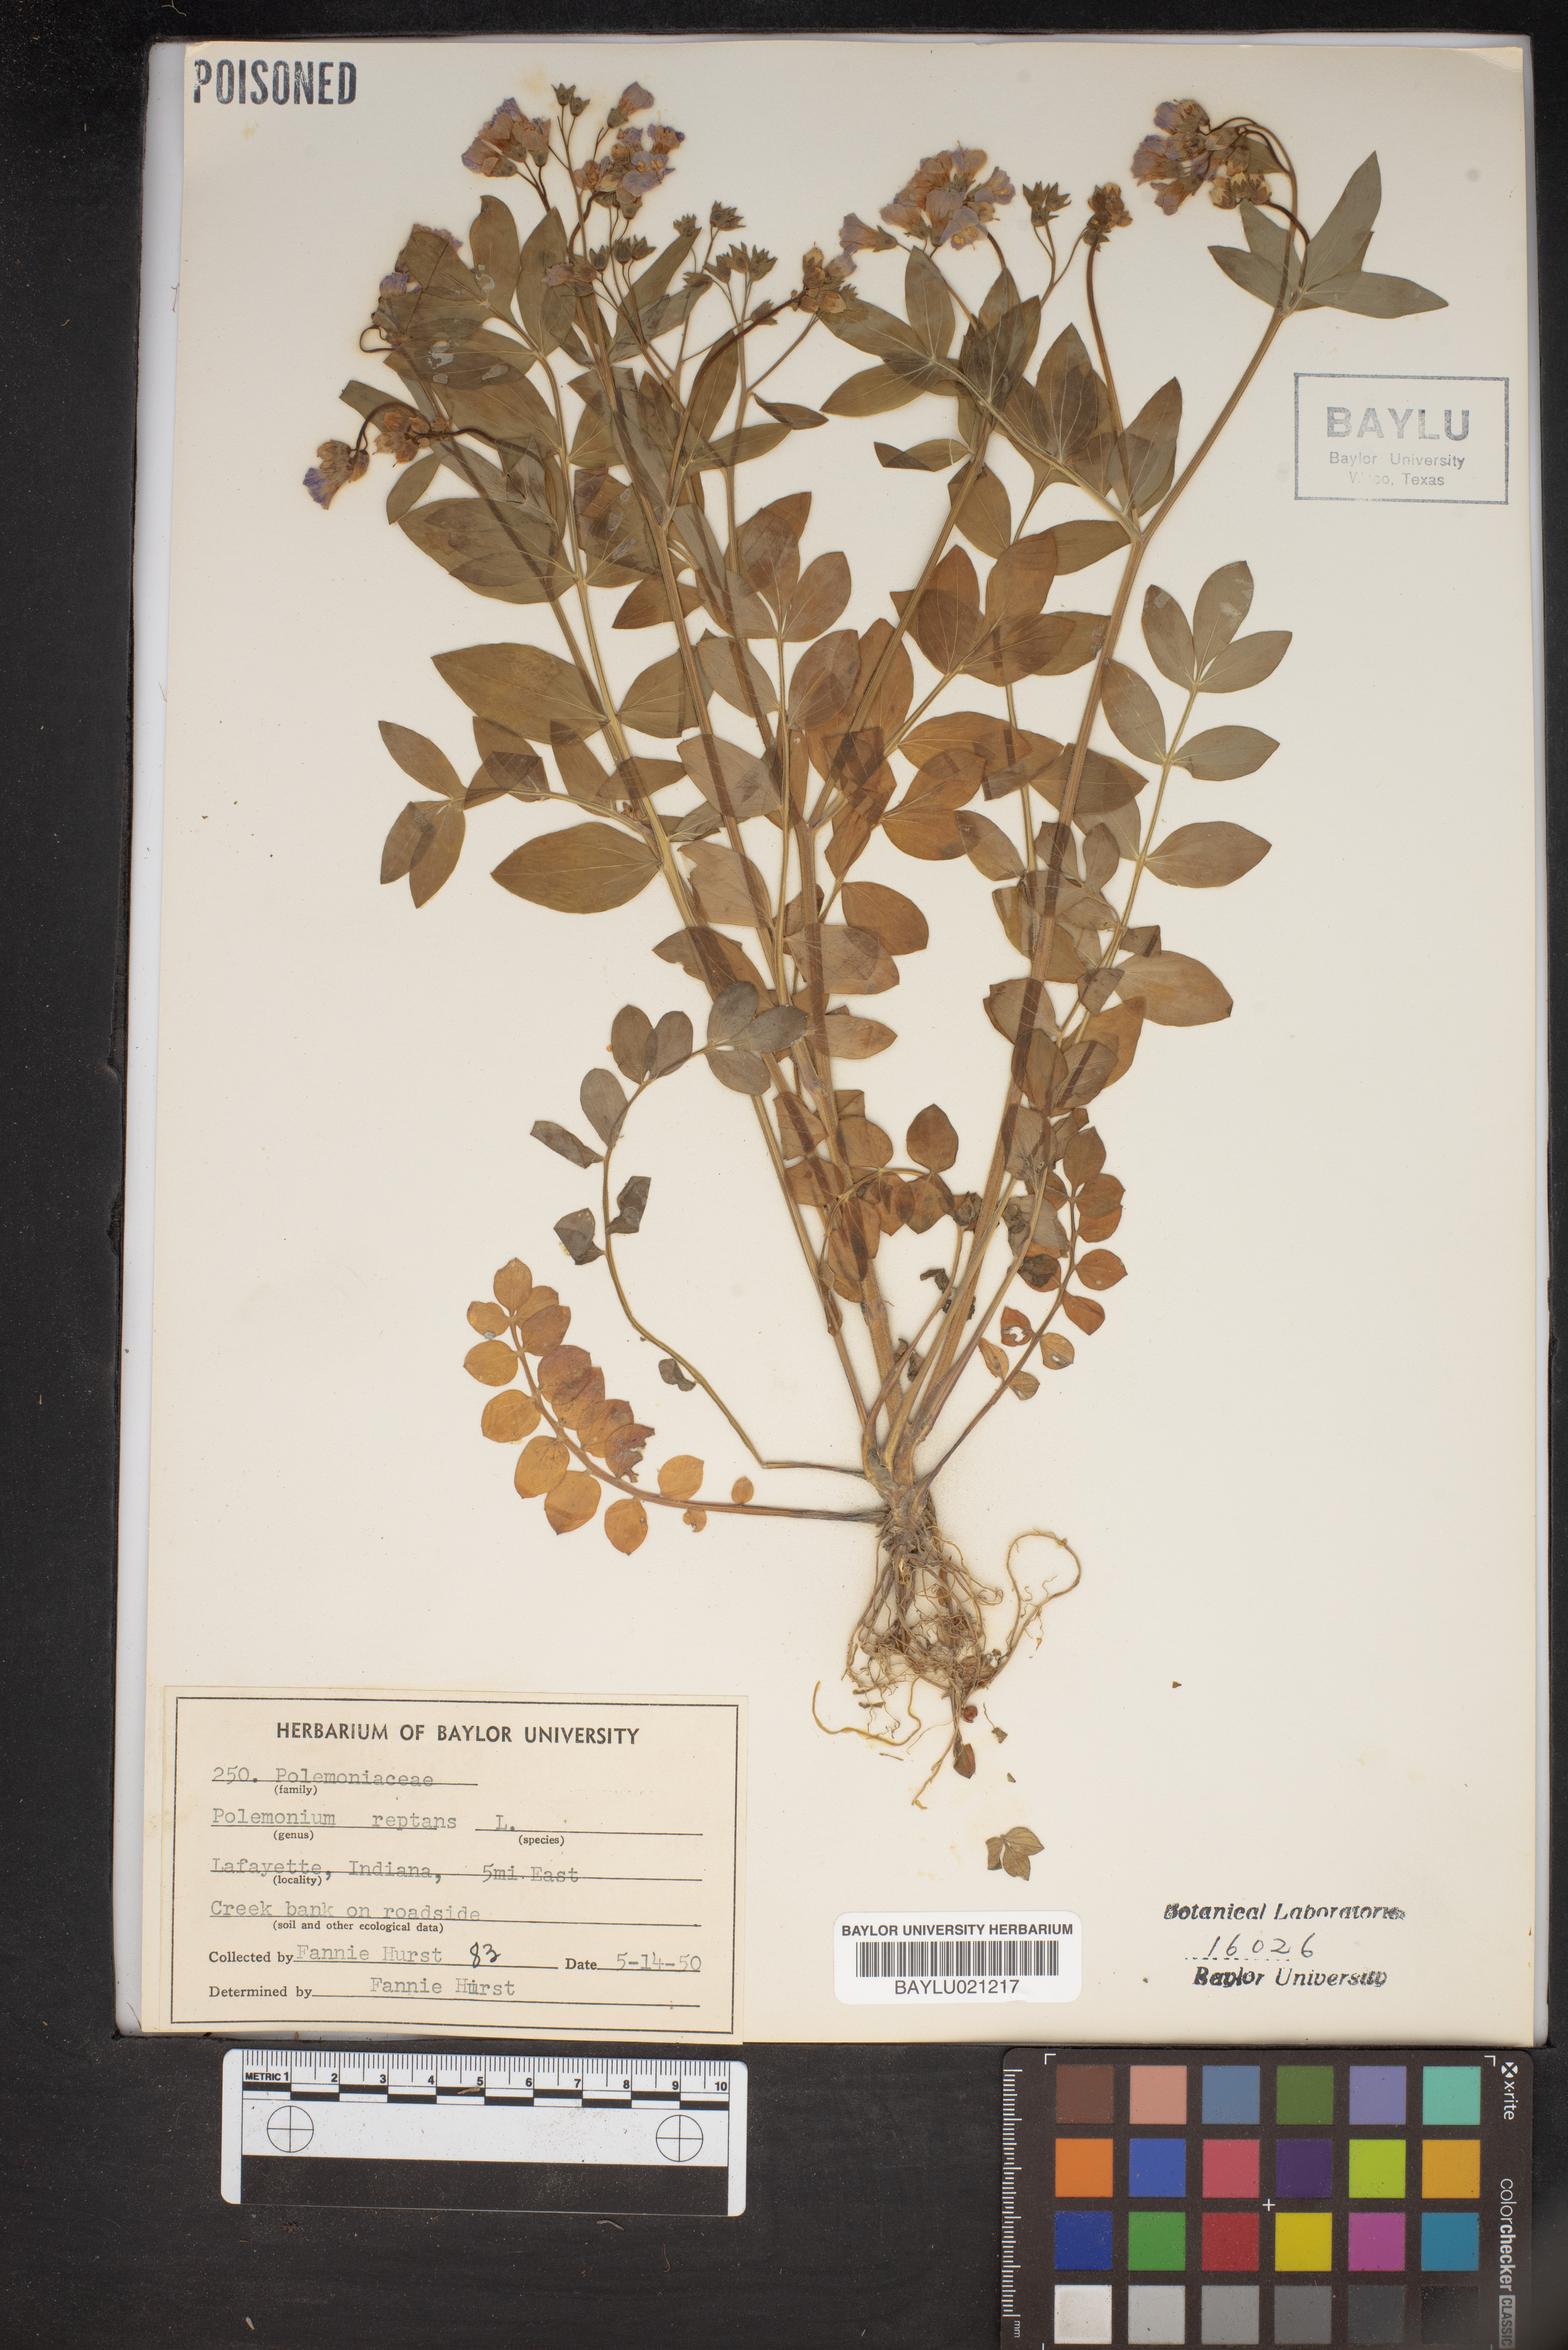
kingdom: Plantae
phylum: Tracheophyta
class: Magnoliopsida
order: Ericales
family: Polemoniaceae
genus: Polemonium
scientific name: Polemonium reptans
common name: Creeping jacob's-ladder
